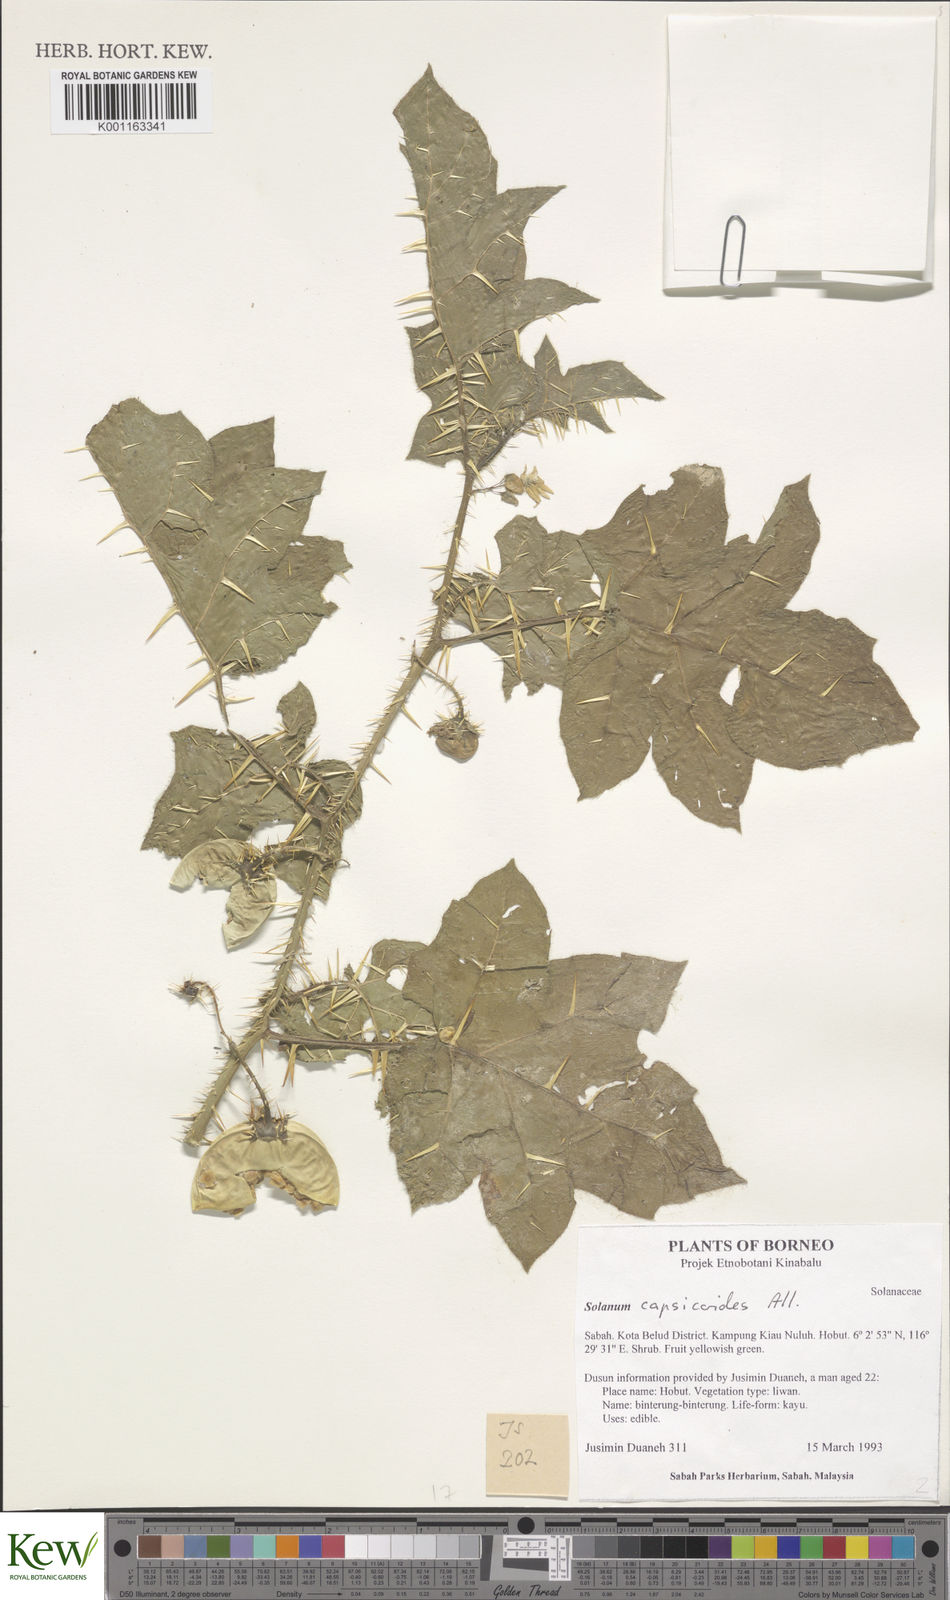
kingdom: Plantae
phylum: Tracheophyta
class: Magnoliopsida
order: Solanales
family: Solanaceae
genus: Solanum
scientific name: Solanum capsicoides
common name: Cockroach berry
